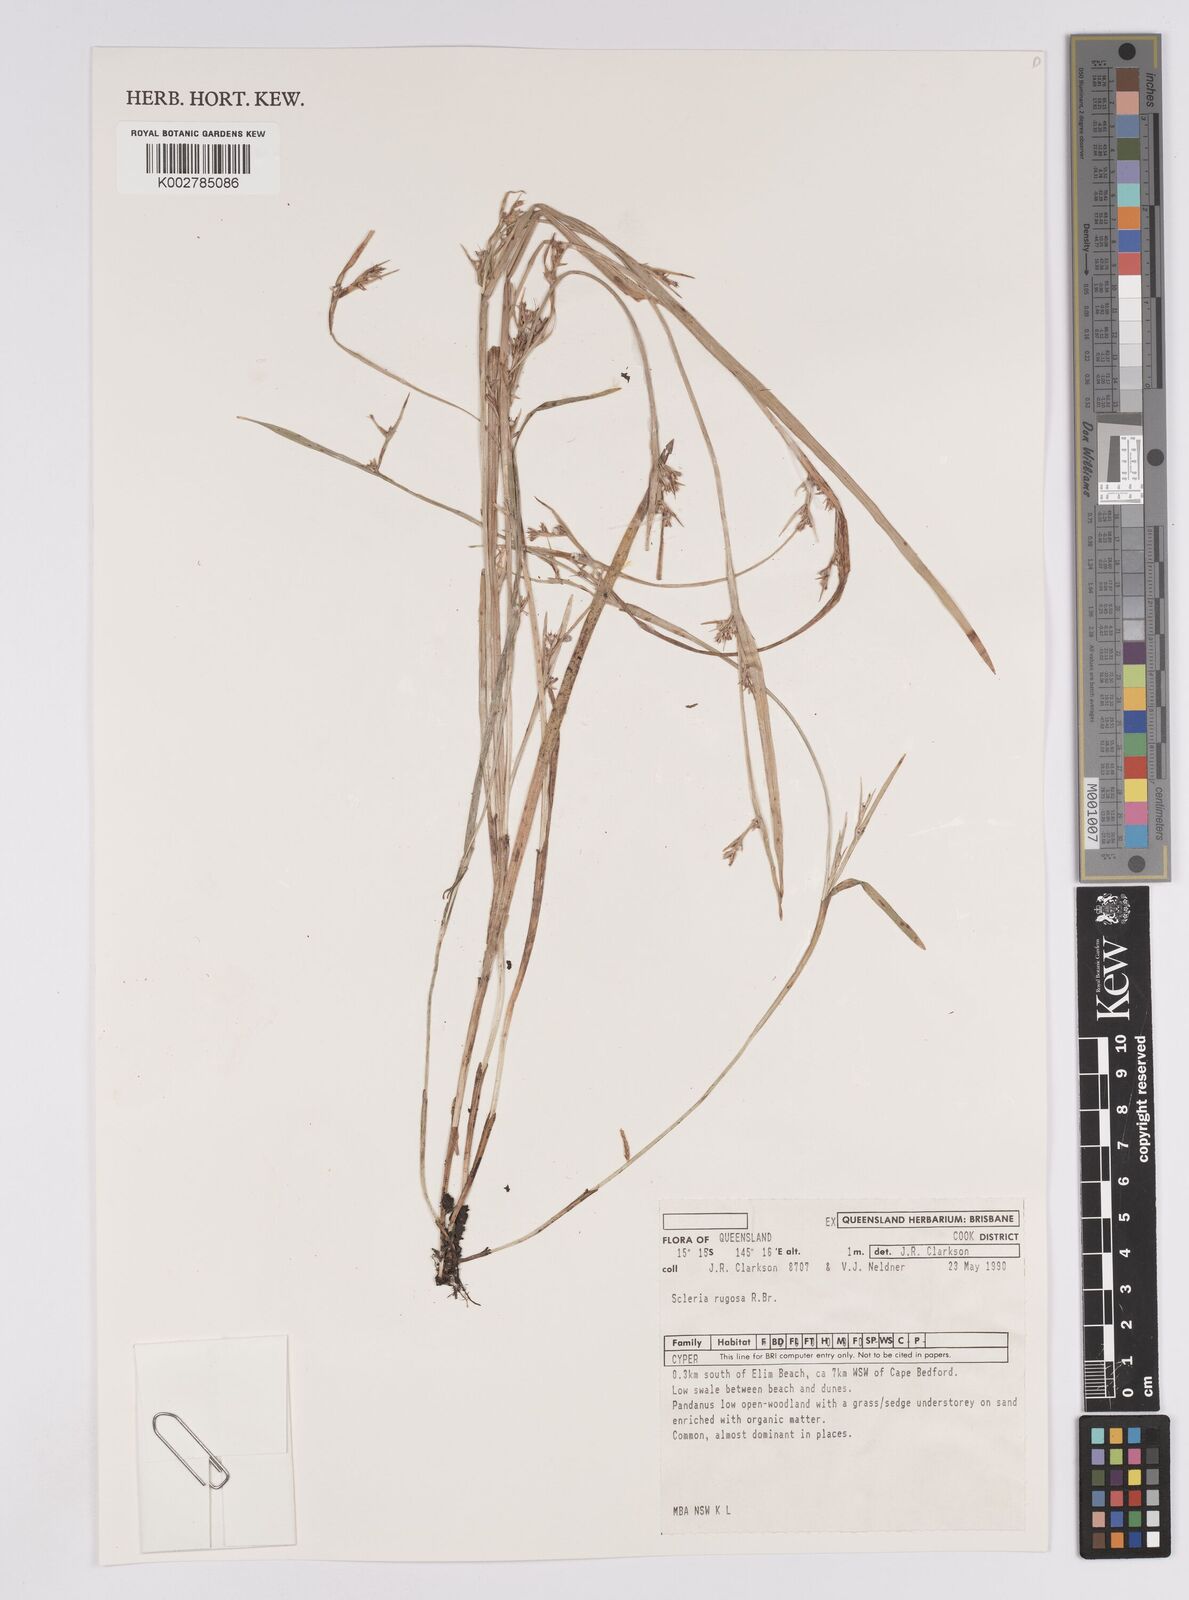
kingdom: Plantae
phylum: Tracheophyta
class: Liliopsida
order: Poales
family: Cyperaceae
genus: Scleria
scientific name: Scleria rugosa
